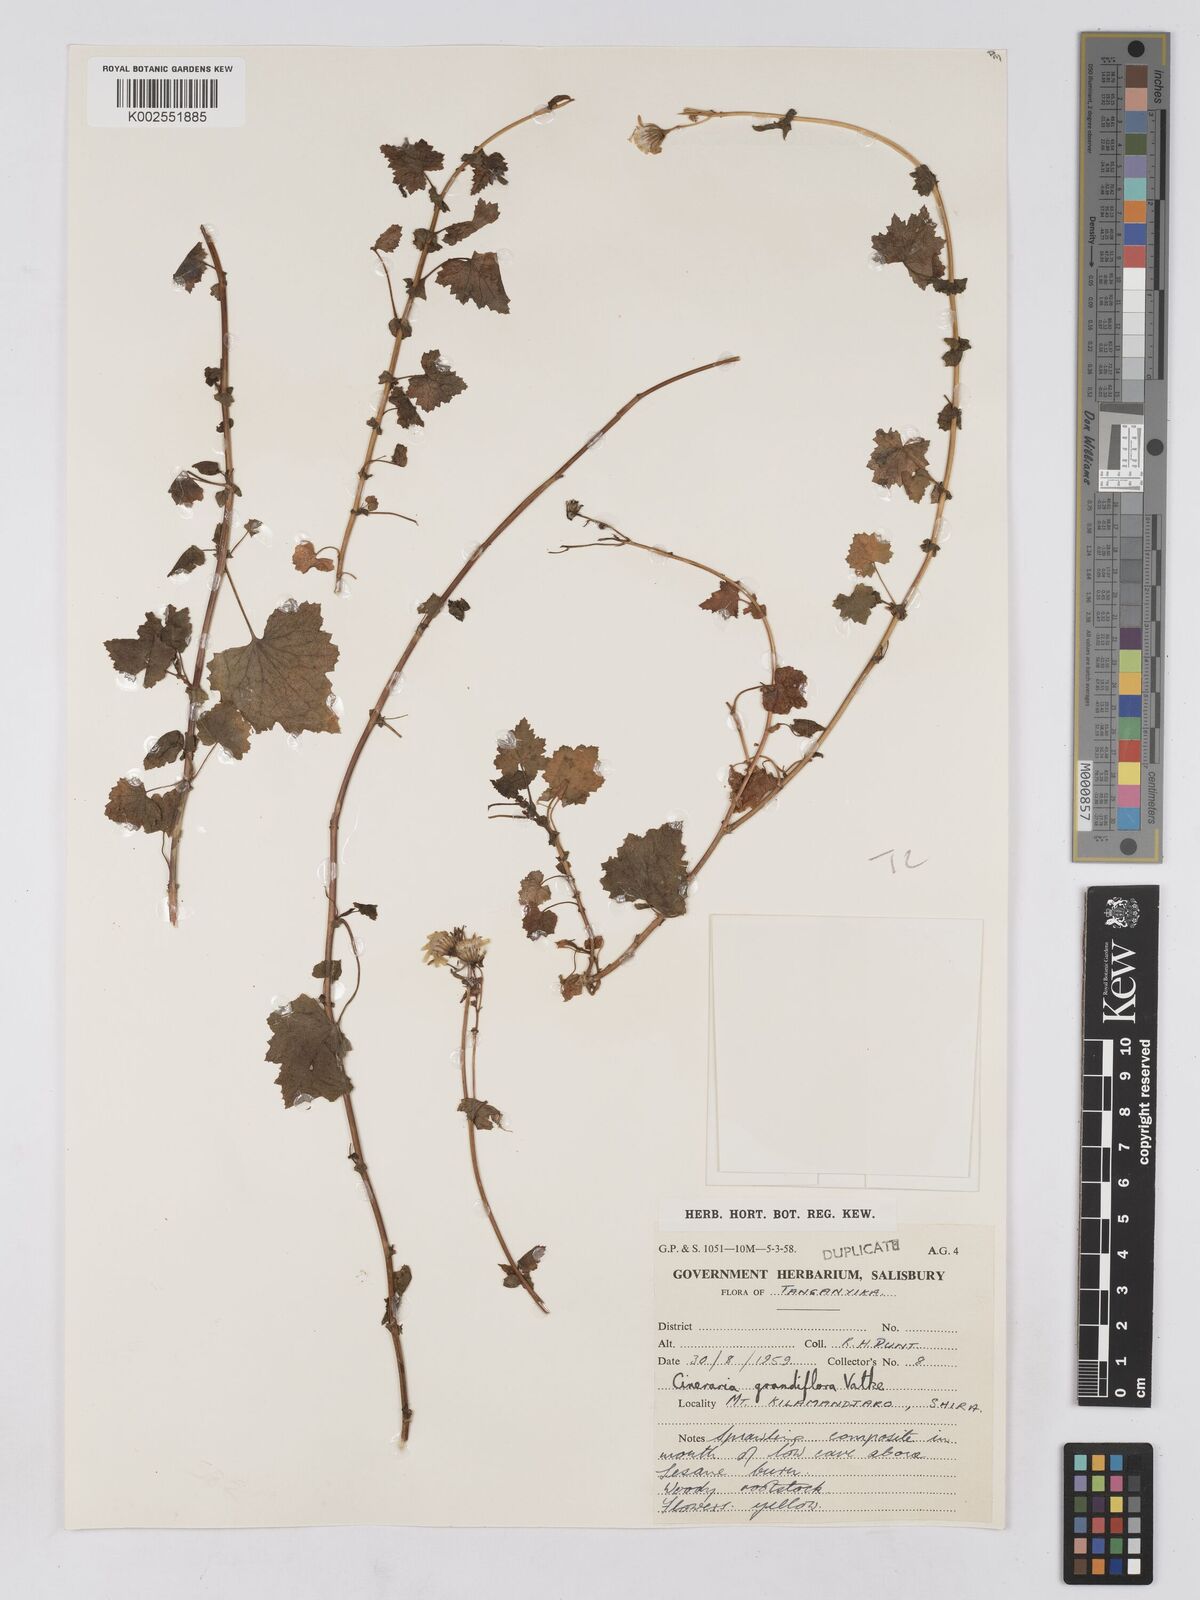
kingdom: Plantae
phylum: Tracheophyta
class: Magnoliopsida
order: Asterales
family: Asteraceae
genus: Cineraria
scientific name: Cineraria deltoidea
